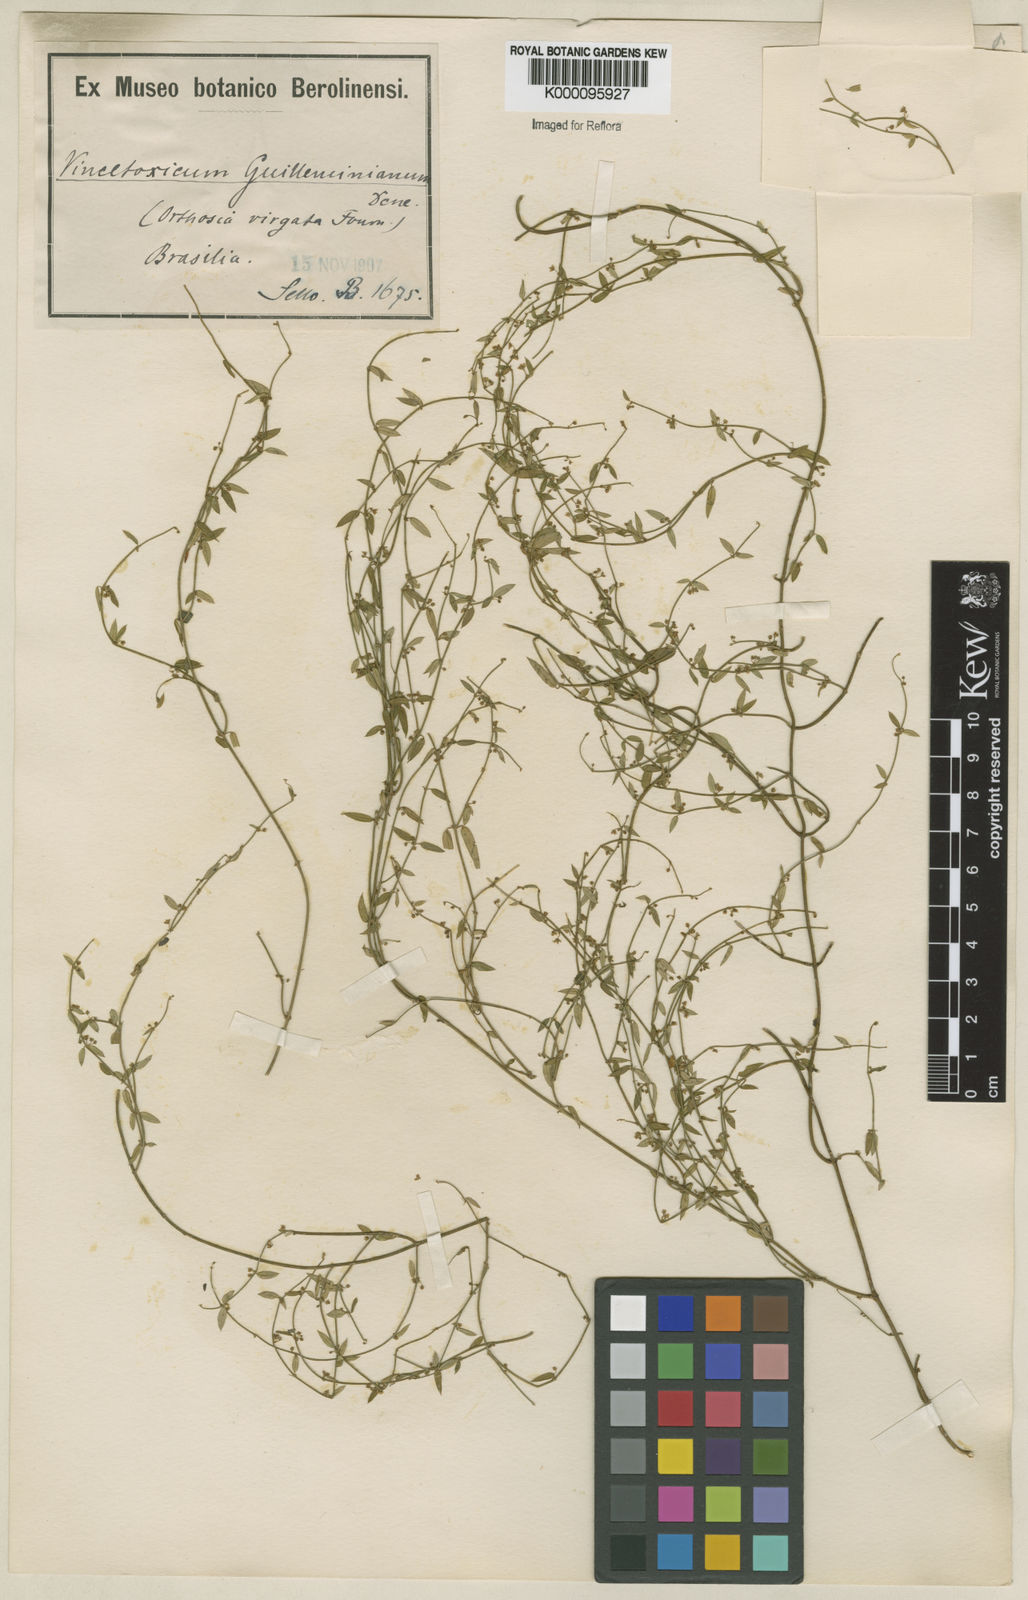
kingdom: Plantae
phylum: Tracheophyta
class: Magnoliopsida
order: Gentianales
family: Apocynaceae
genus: Orthosia
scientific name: Orthosia virgata
